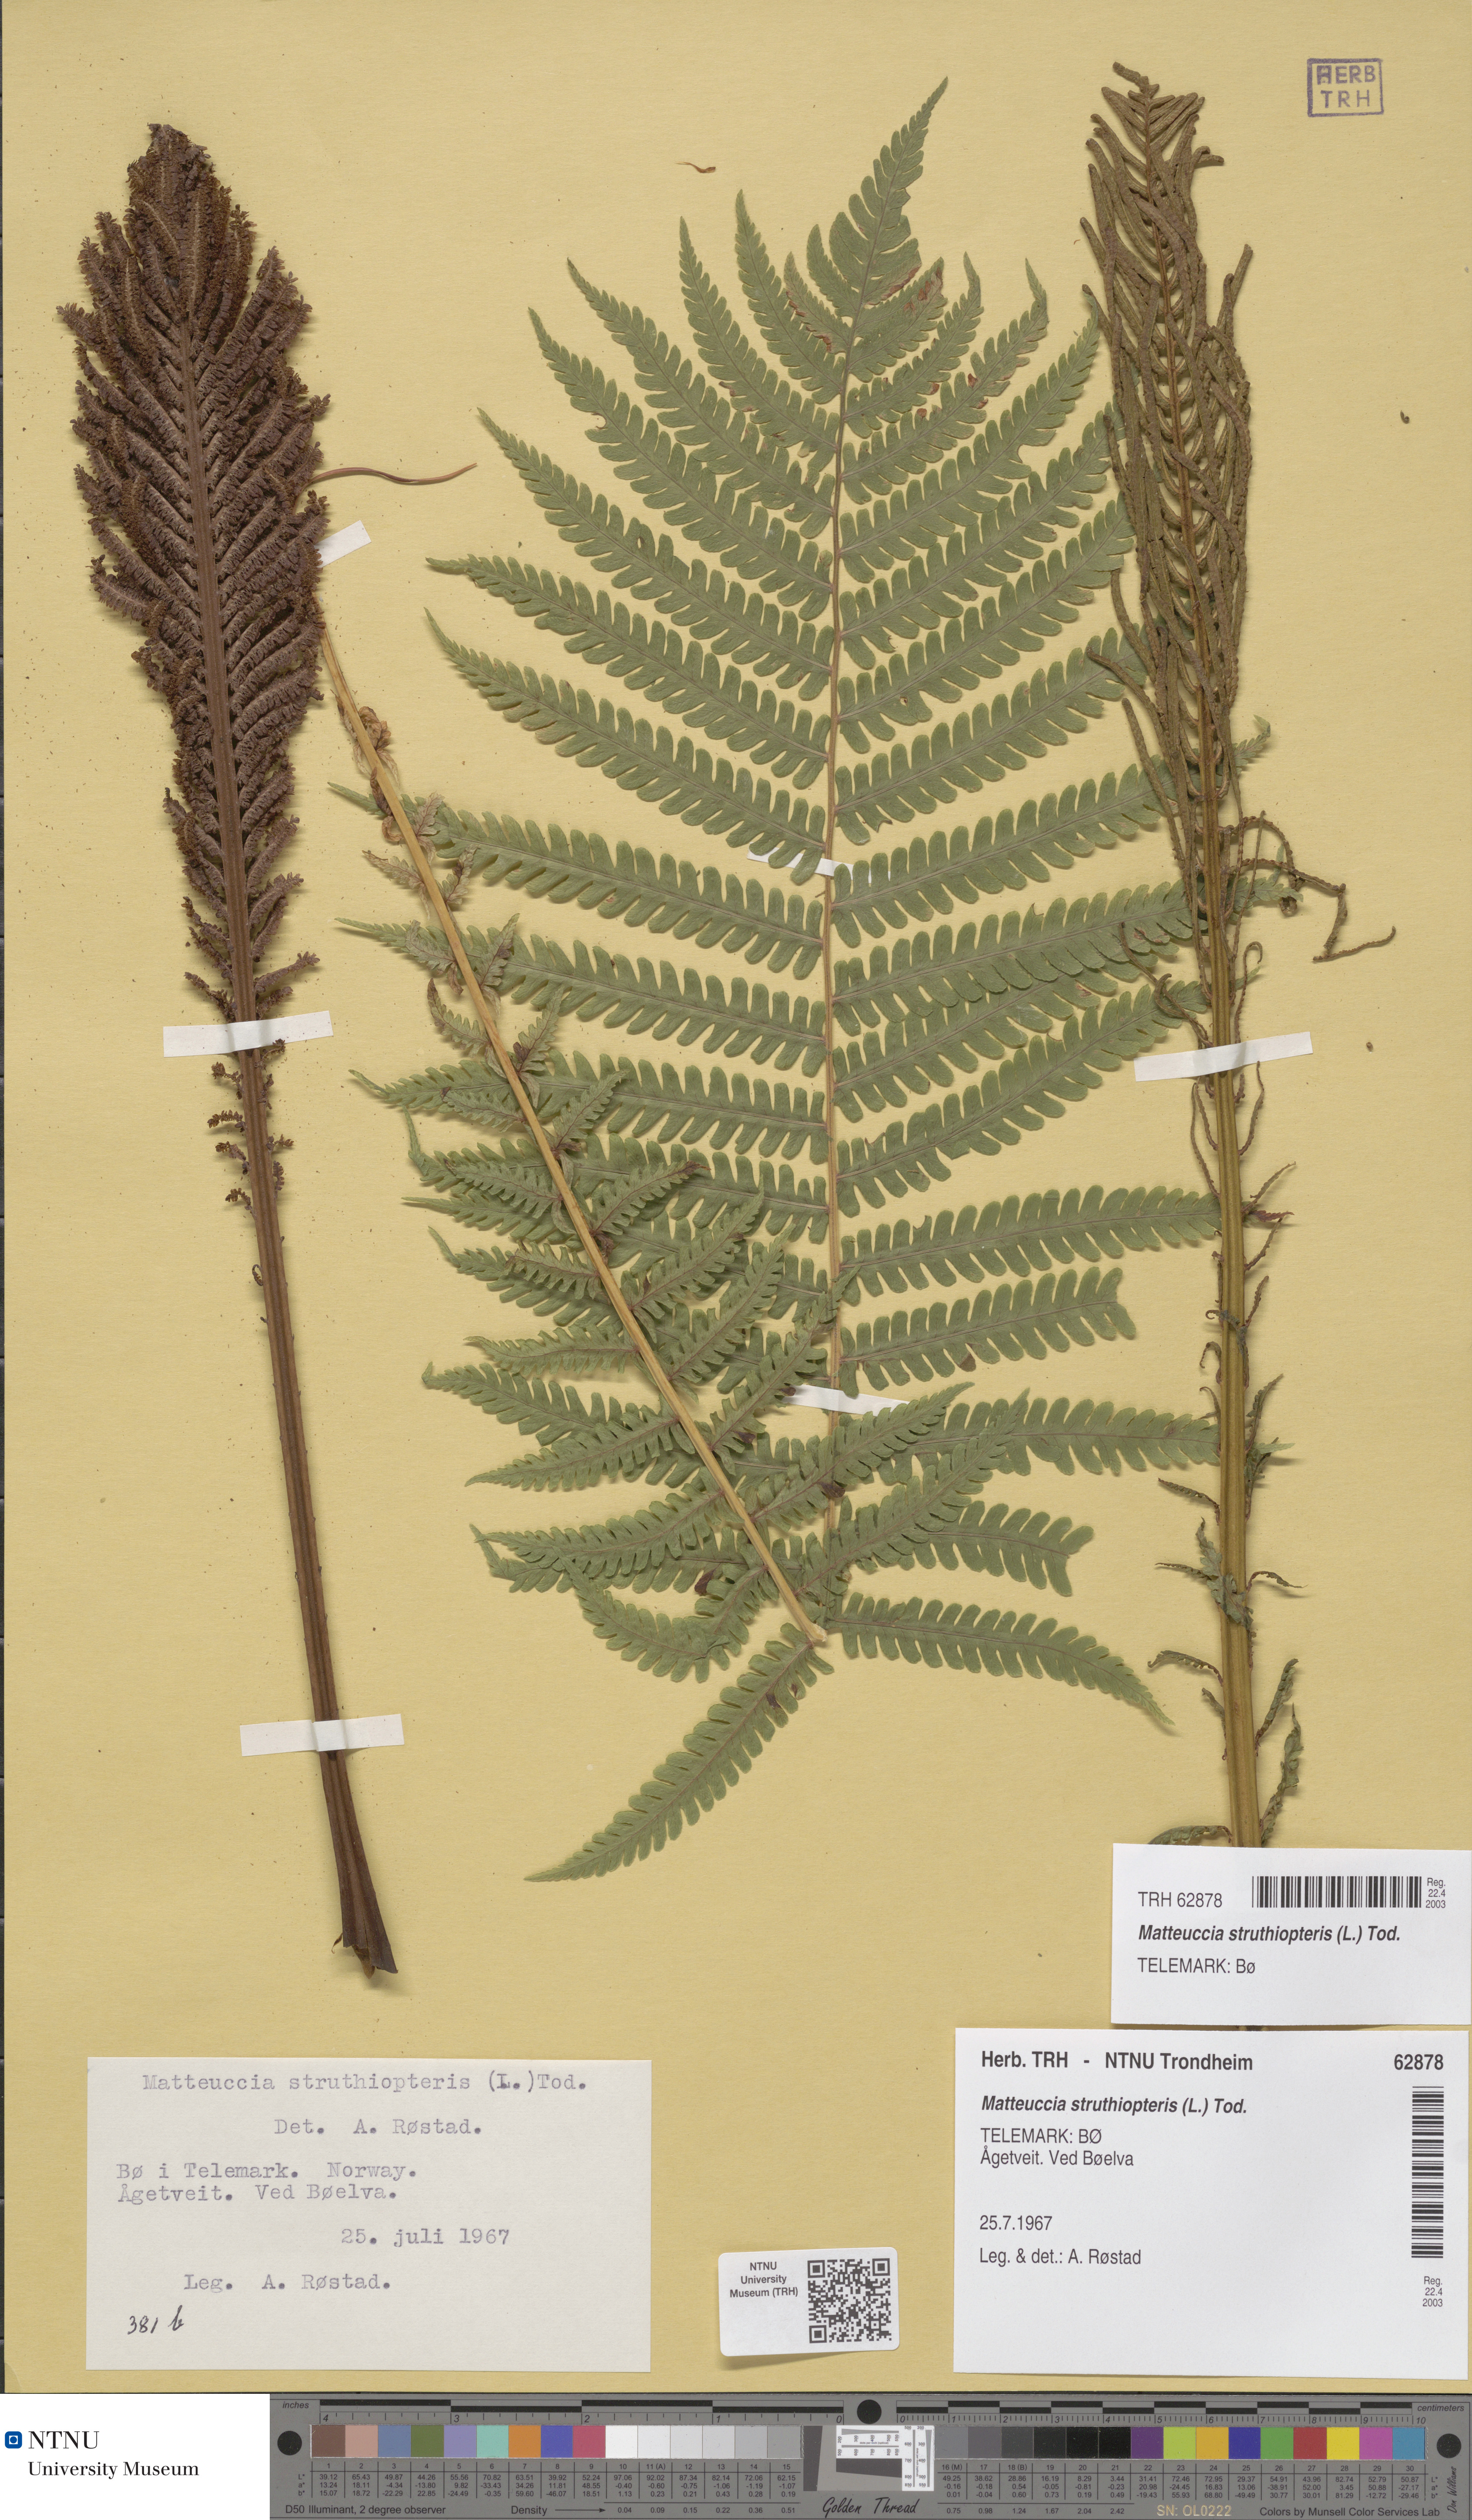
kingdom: Plantae
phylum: Tracheophyta
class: Polypodiopsida
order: Polypodiales
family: Onocleaceae
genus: Matteuccia
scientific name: Matteuccia struthiopteris
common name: Ostrich fern
